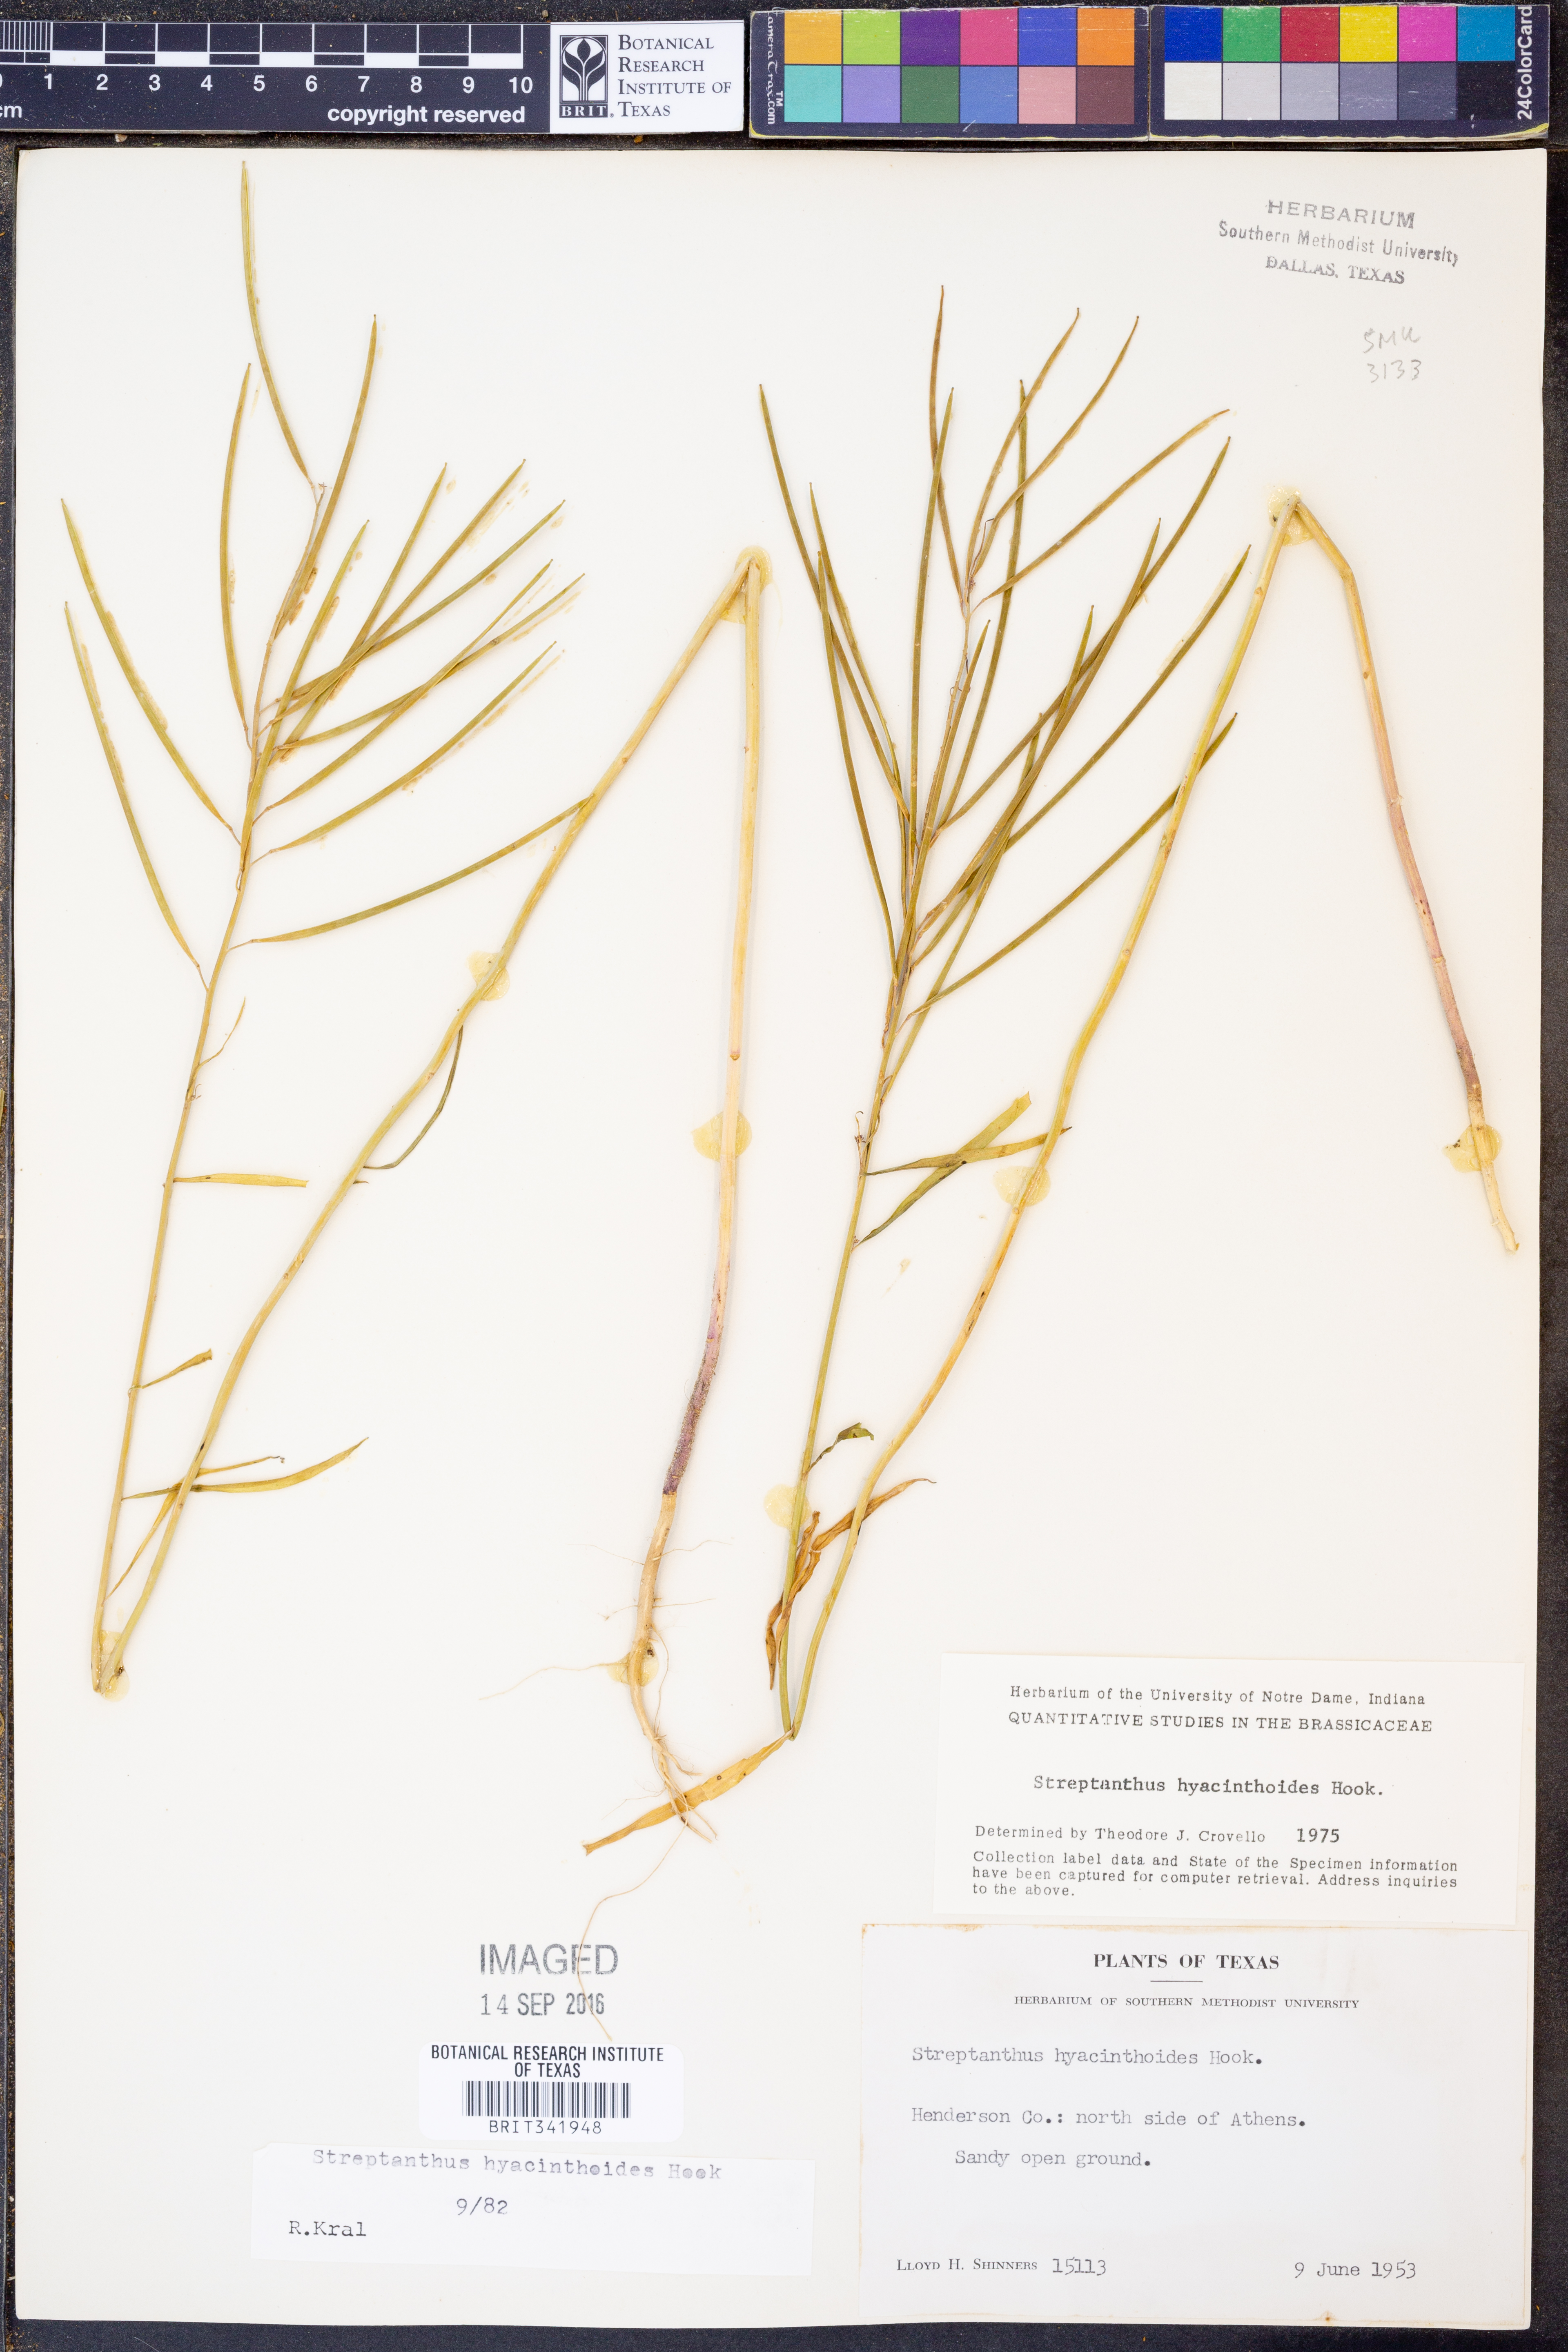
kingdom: Plantae
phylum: Tracheophyta
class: Magnoliopsida
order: Brassicales
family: Brassicaceae
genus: Streptanthus
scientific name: Streptanthus hyacinthoides
